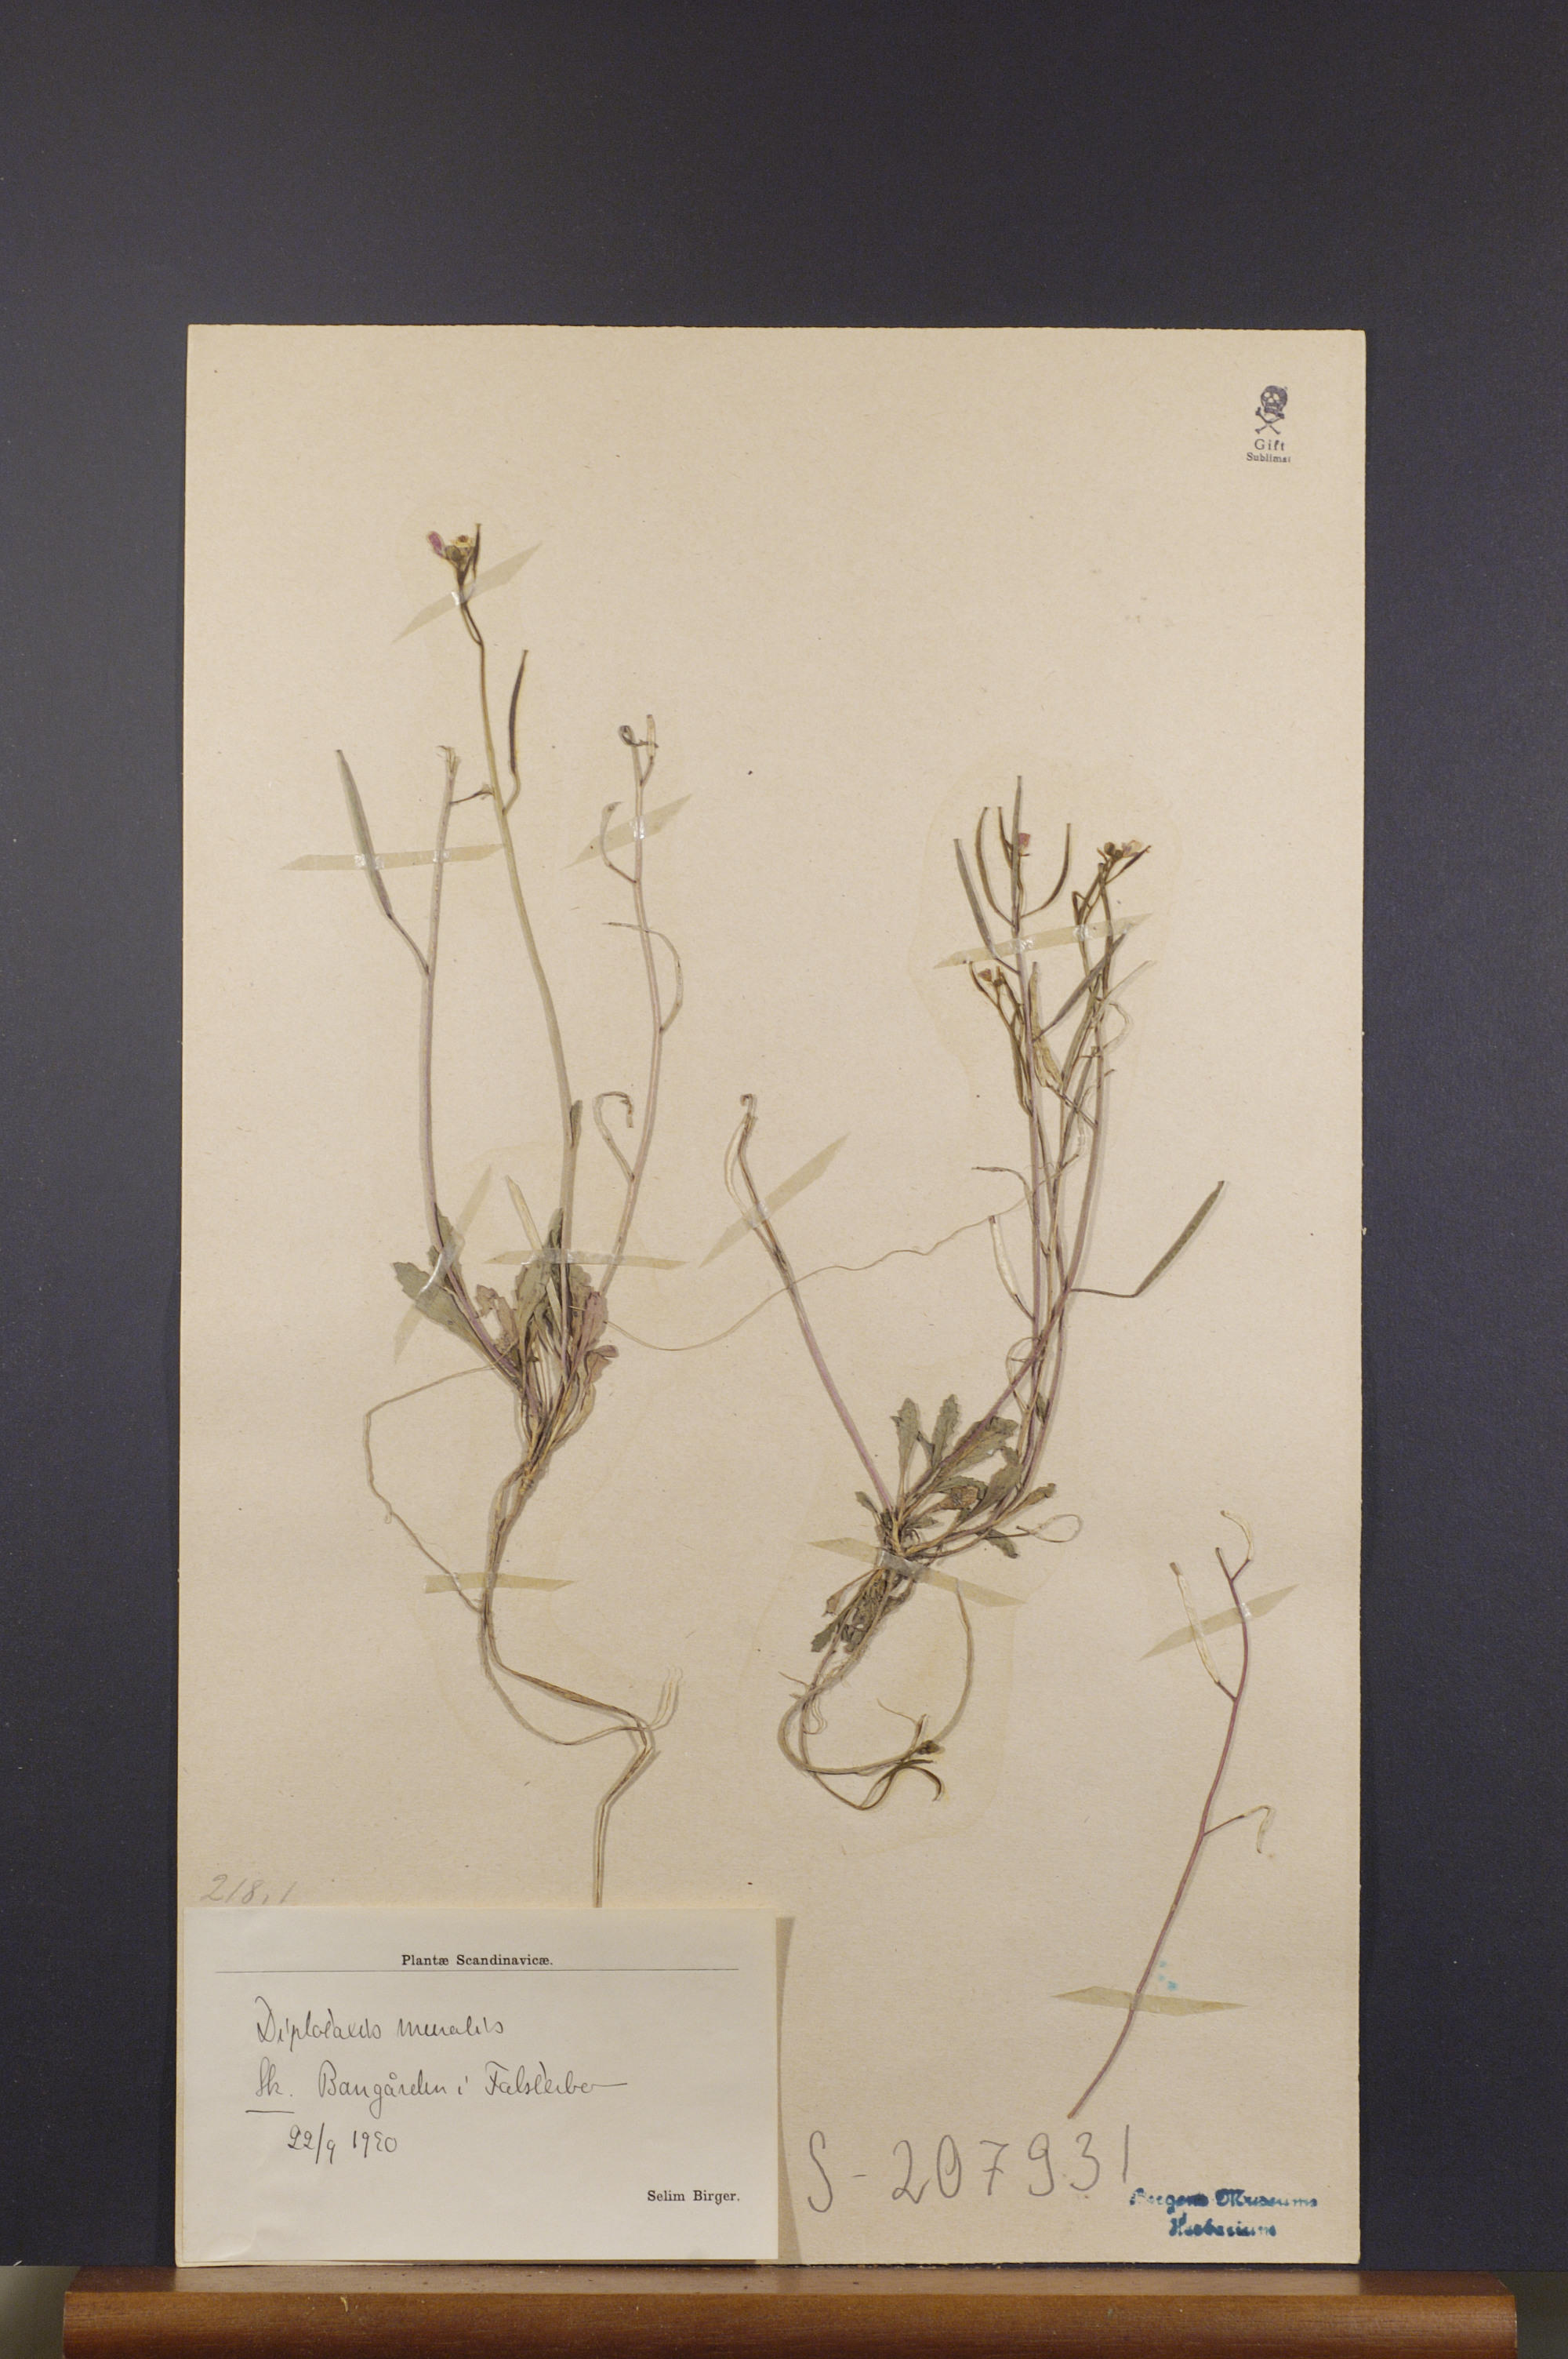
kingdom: Plantae
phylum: Tracheophyta
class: Magnoliopsida
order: Brassicales
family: Brassicaceae
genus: Diplotaxis
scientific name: Diplotaxis muralis
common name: Annual wall-rocket
